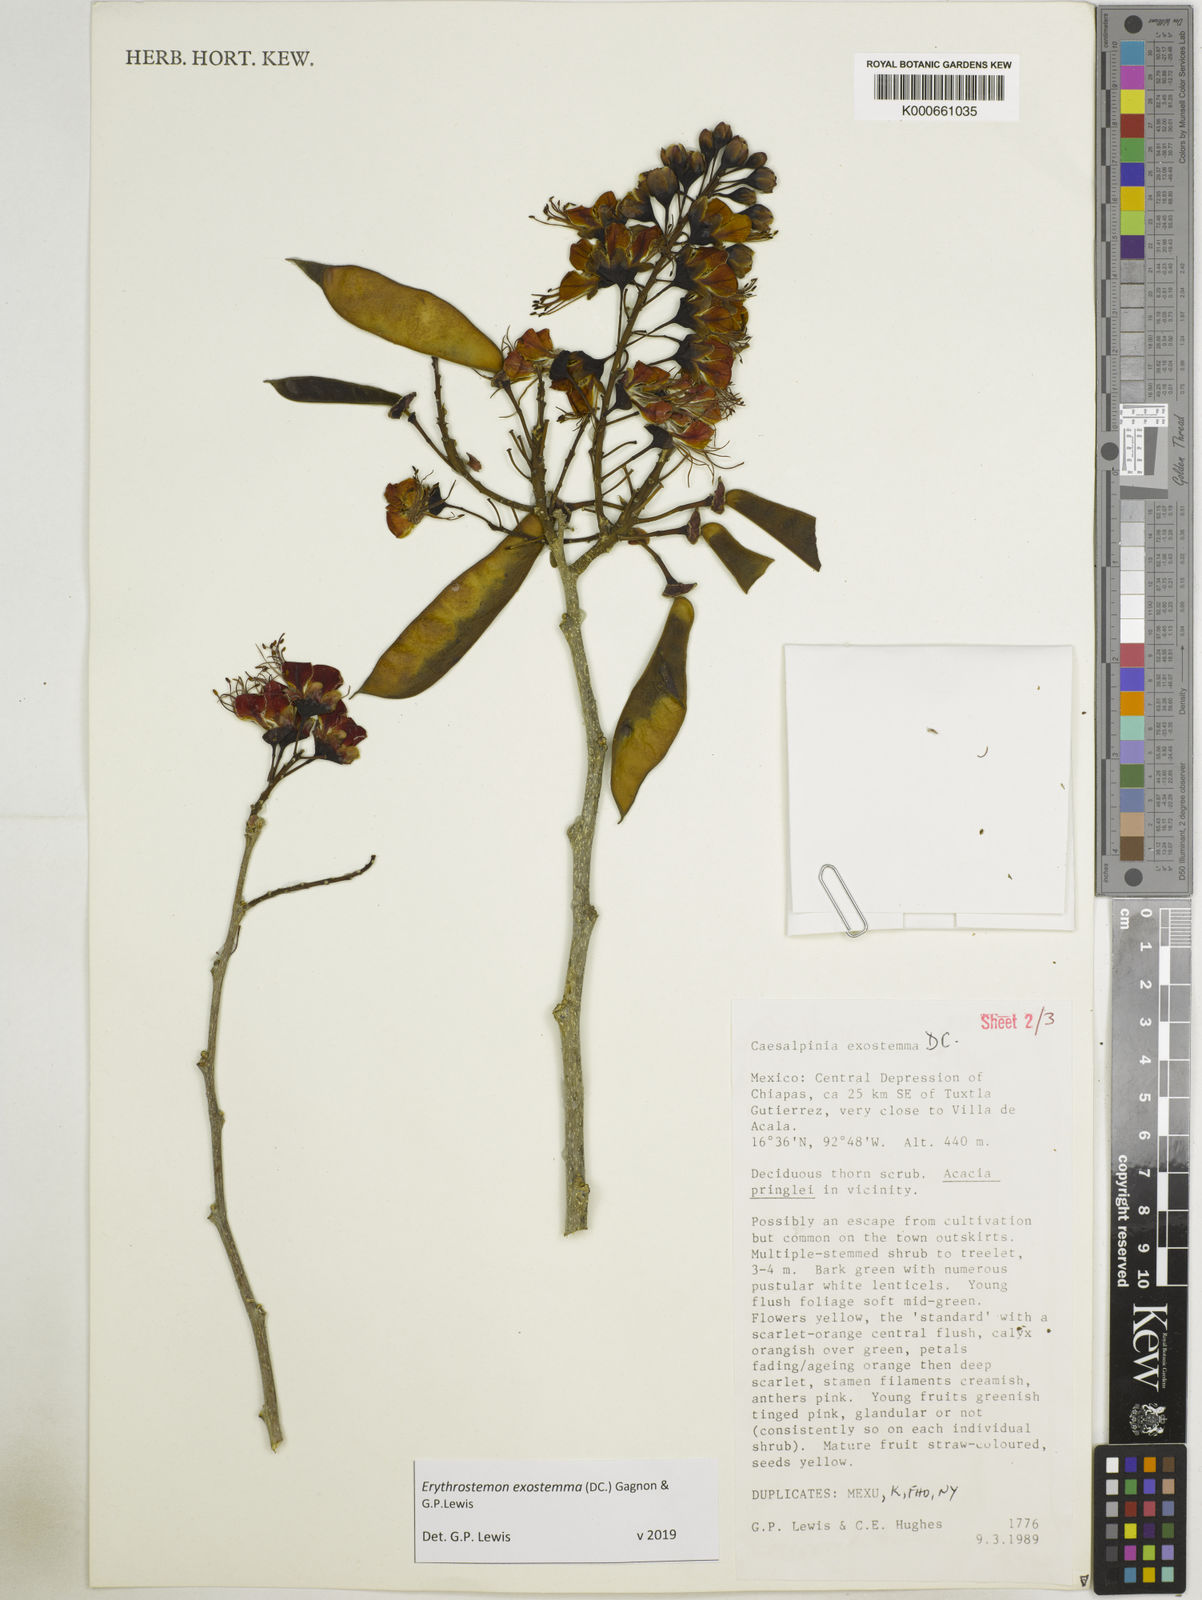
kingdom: Plantae
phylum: Tracheophyta
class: Magnoliopsida
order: Fabales
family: Fabaceae
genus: Erythrostemon
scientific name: Erythrostemon exostemma
